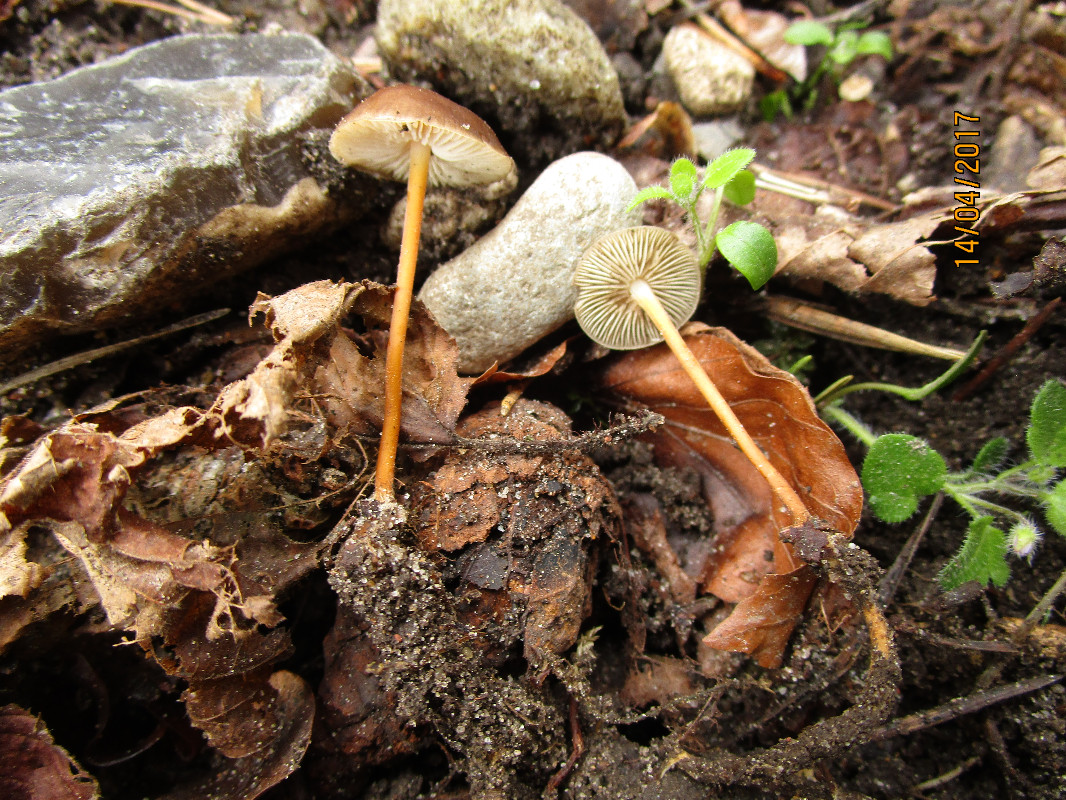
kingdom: Fungi
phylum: Basidiomycota
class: Agaricomycetes
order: Agaricales
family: Physalacriaceae
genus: Strobilurus
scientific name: Strobilurus tenacellus
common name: sommer-koglehat
